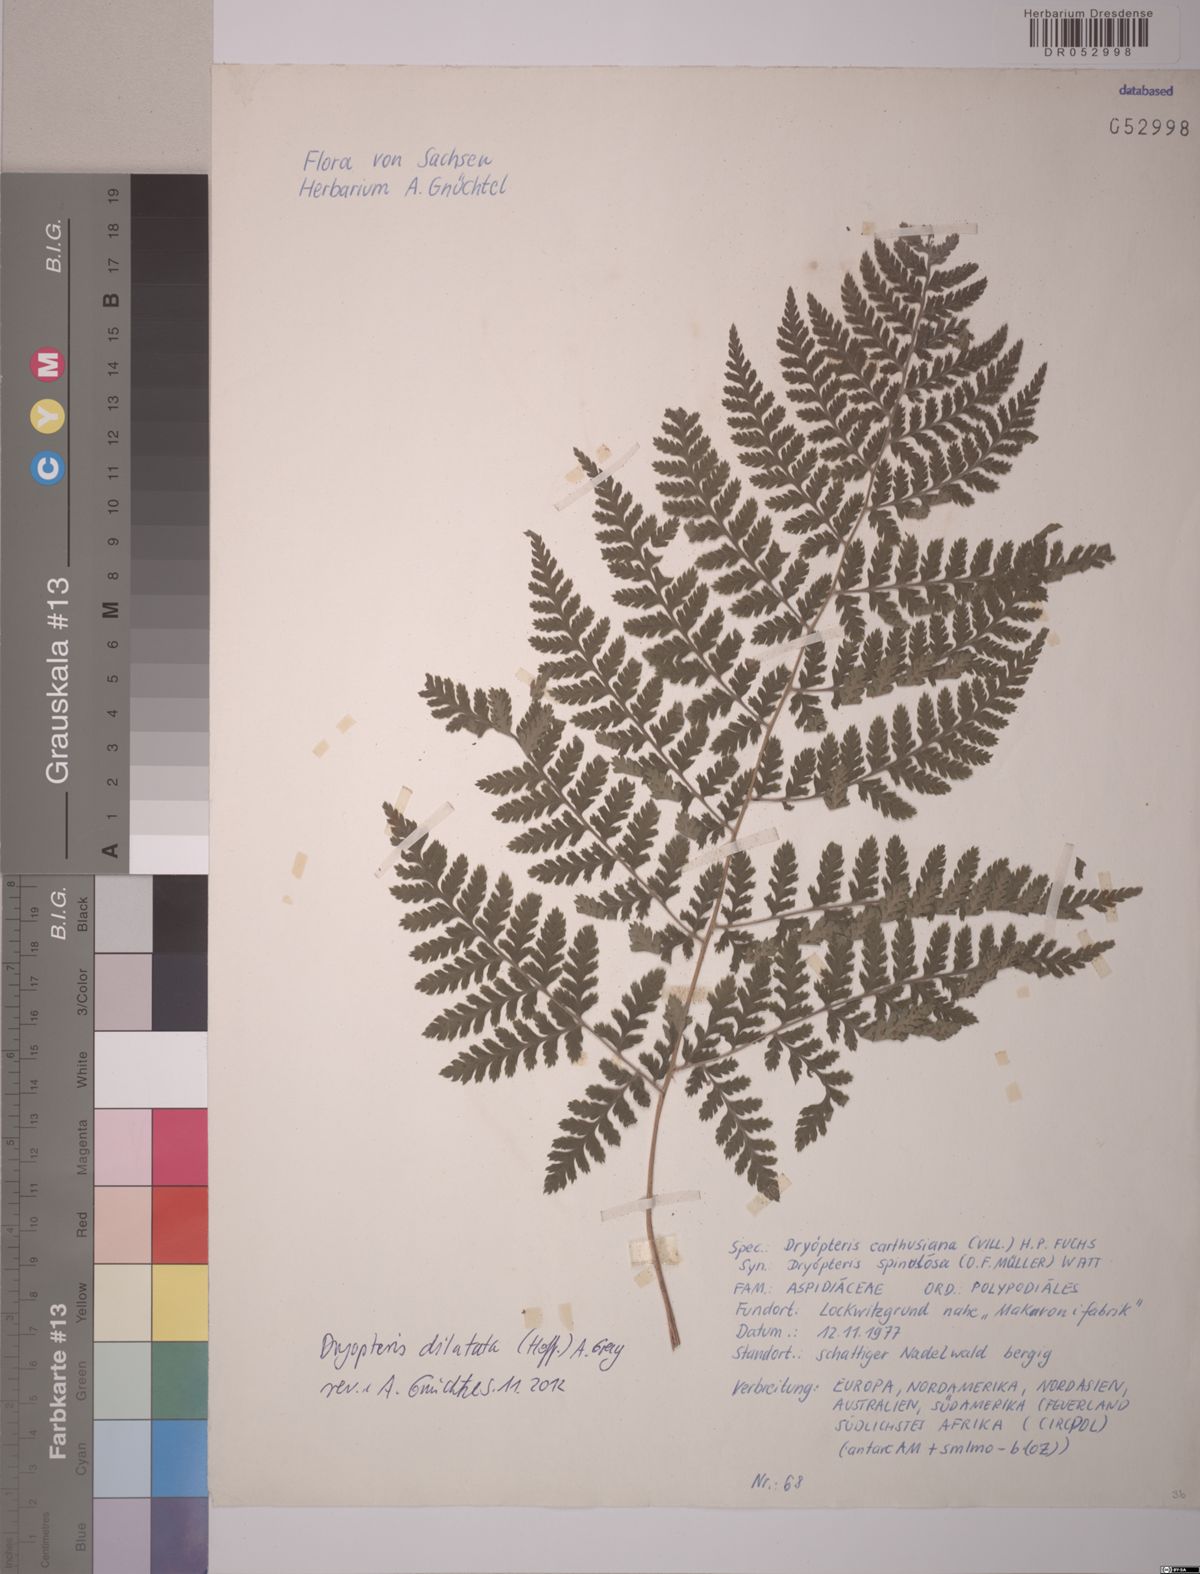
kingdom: Plantae
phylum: Tracheophyta
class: Polypodiopsida
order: Polypodiales
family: Dryopteridaceae
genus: Dryopteris
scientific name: Dryopteris dilatata
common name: Broad buckler-fern
